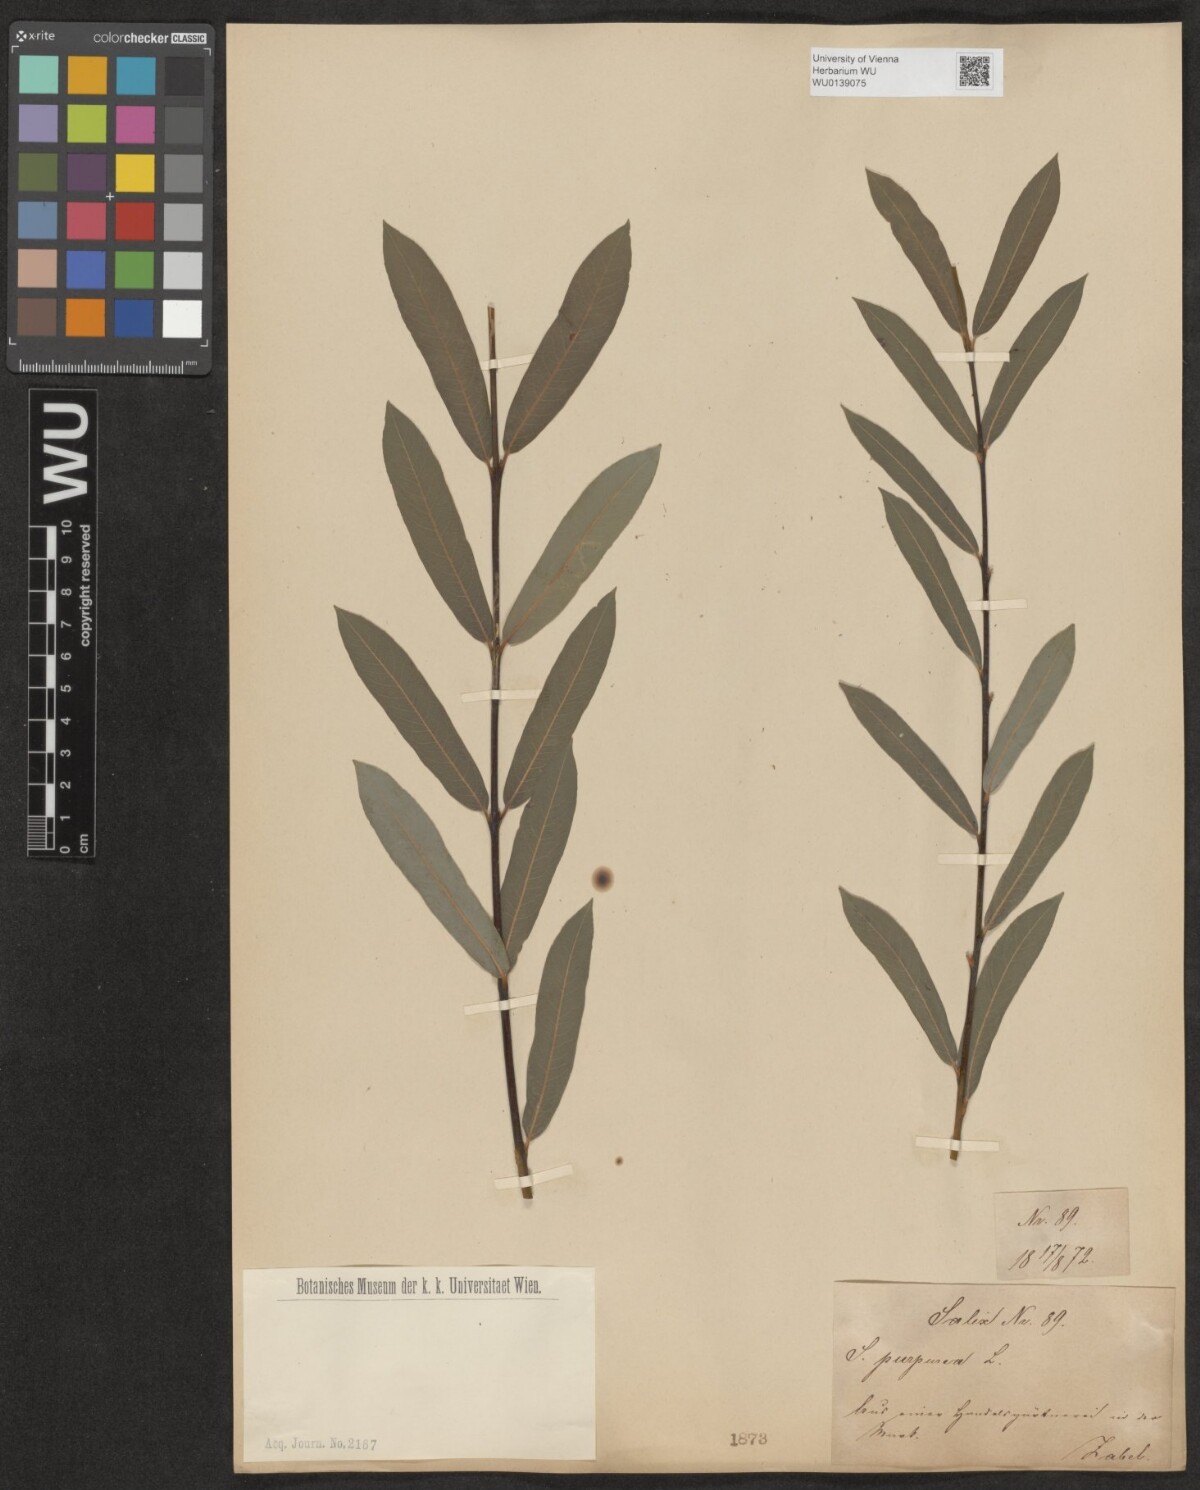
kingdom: Plantae
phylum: Tracheophyta
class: Magnoliopsida
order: Malpighiales
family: Salicaceae
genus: Salix
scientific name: Salix purpurea
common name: Purple willow
